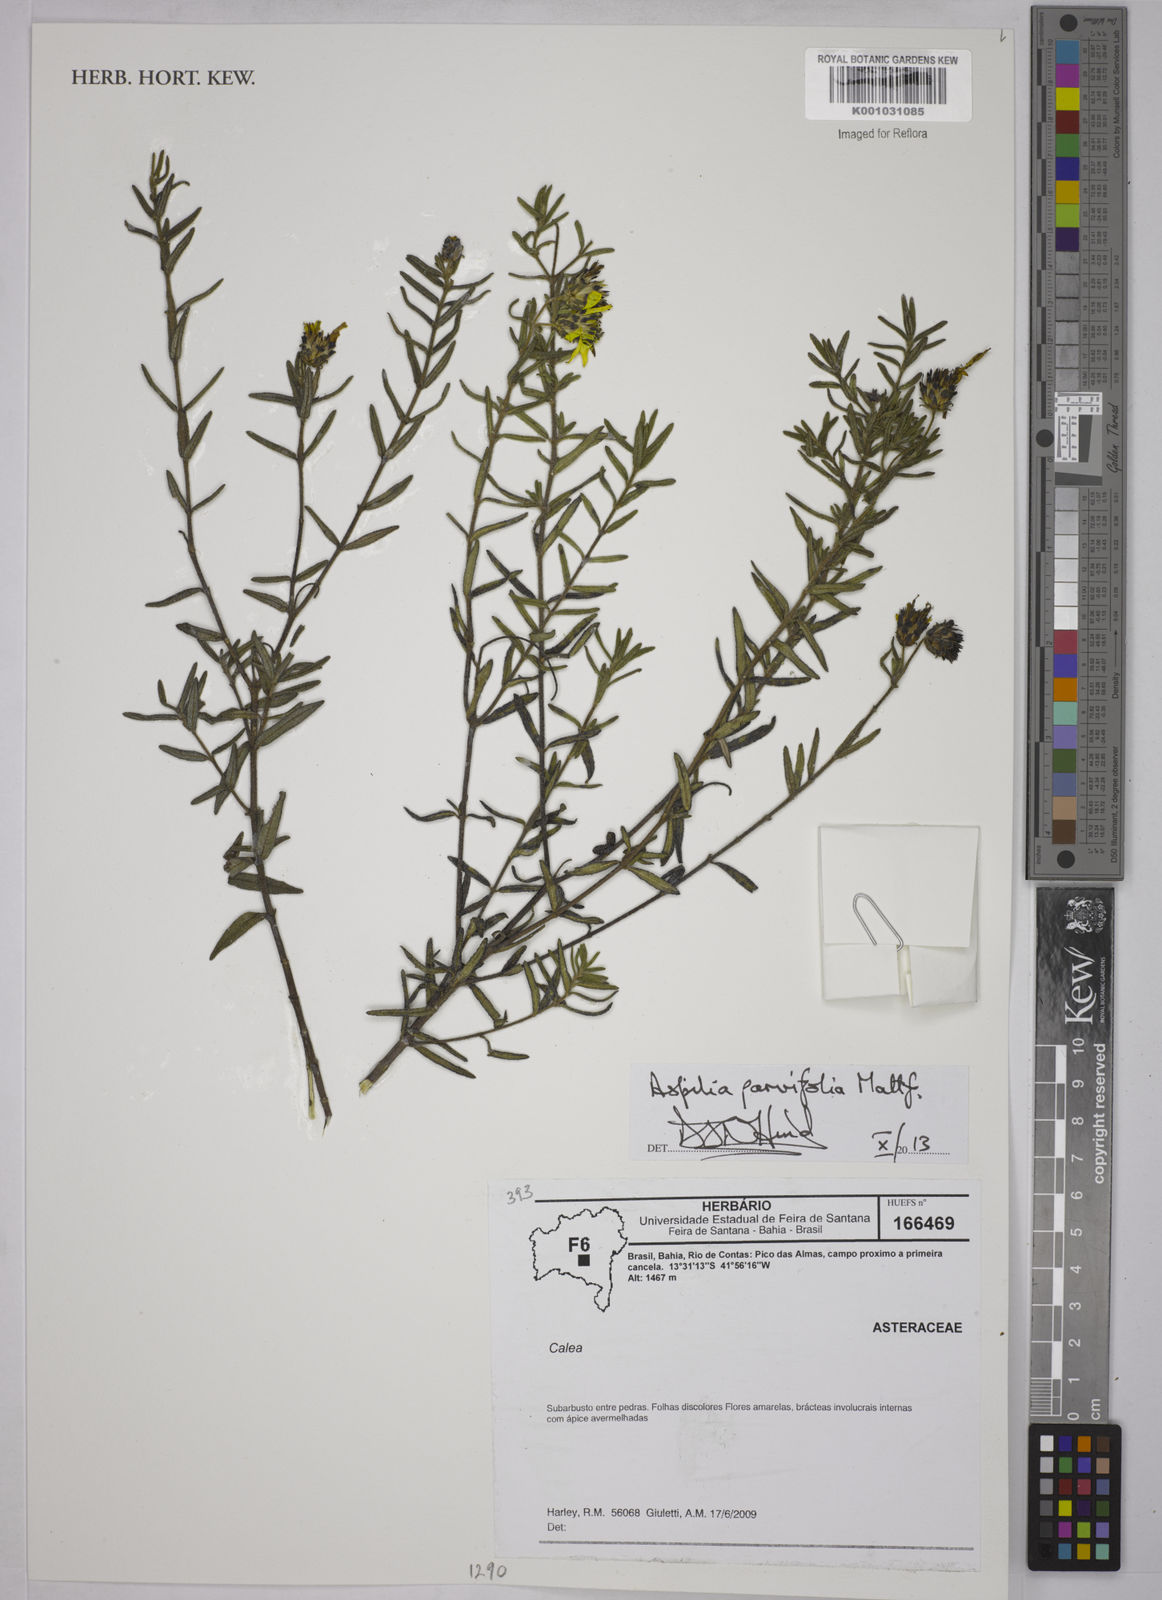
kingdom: Plantae
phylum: Tracheophyta
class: Magnoliopsida
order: Asterales
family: Asteraceae
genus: Aspilia
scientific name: Aspilia foliosa
